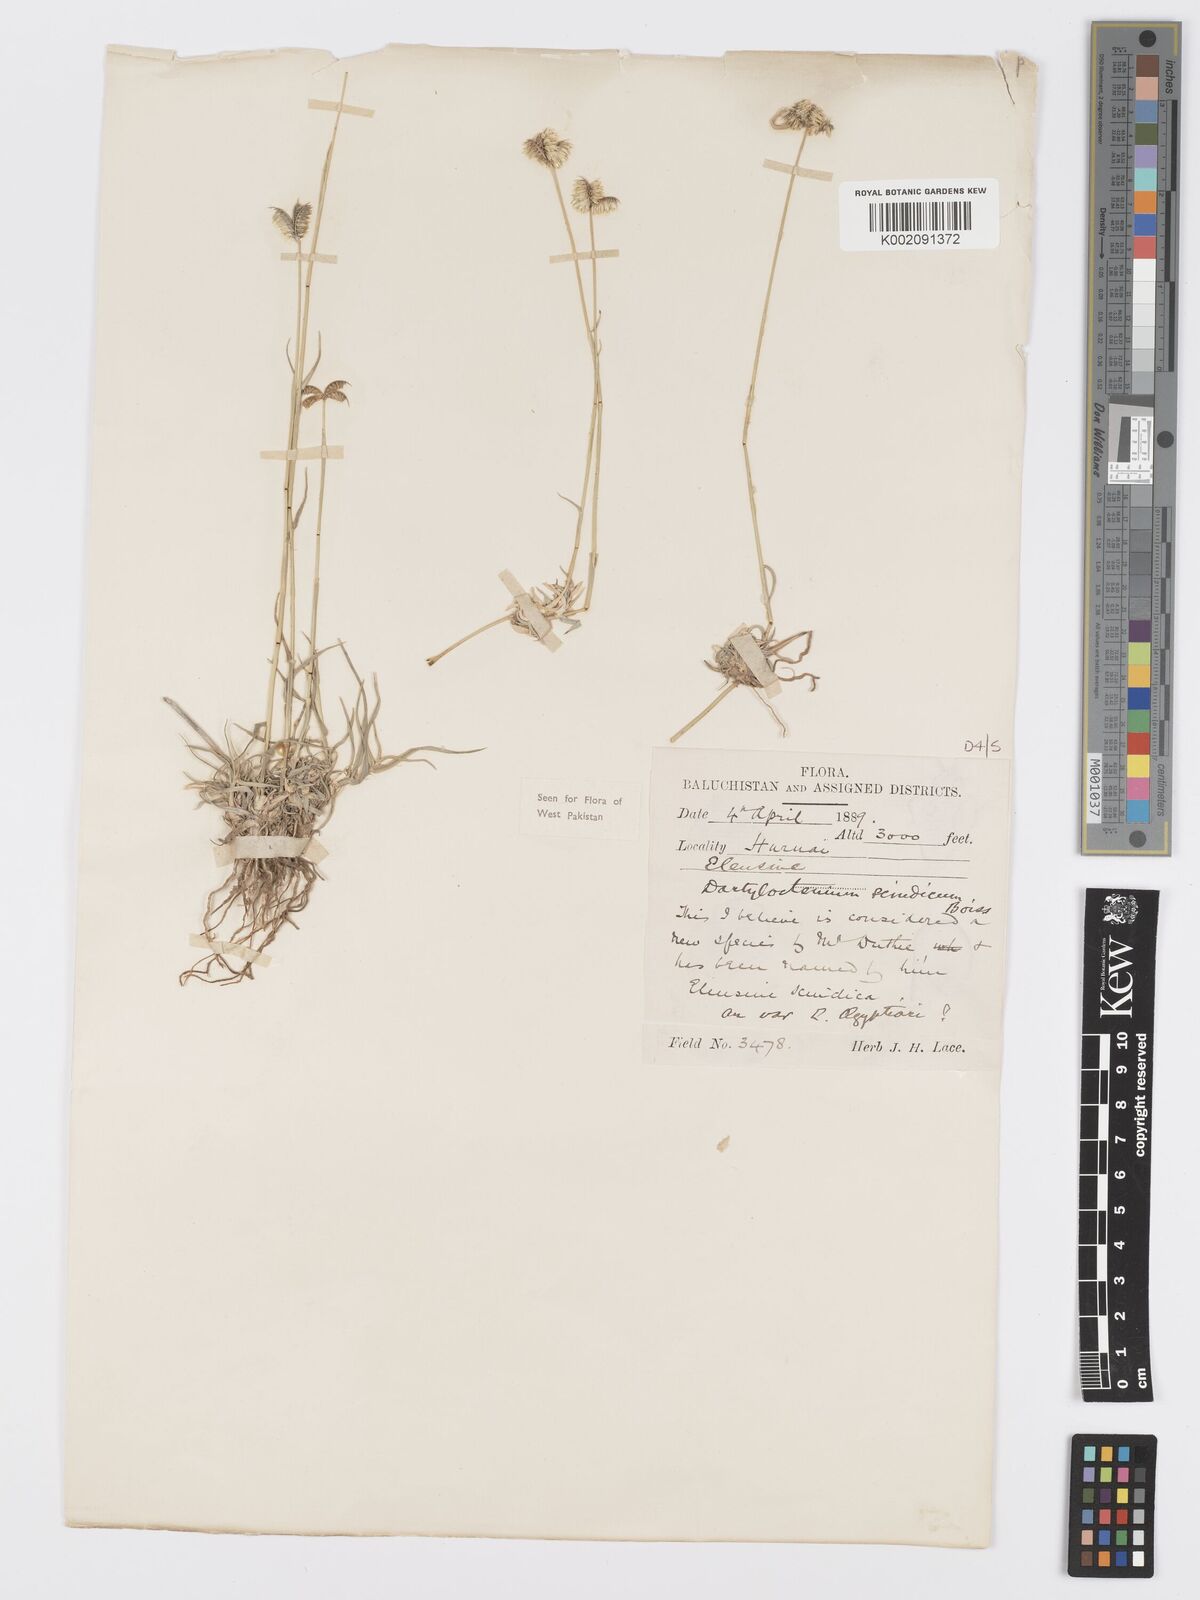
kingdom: Plantae
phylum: Tracheophyta
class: Liliopsida
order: Poales
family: Poaceae
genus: Dactyloctenium
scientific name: Dactyloctenium scindicum
